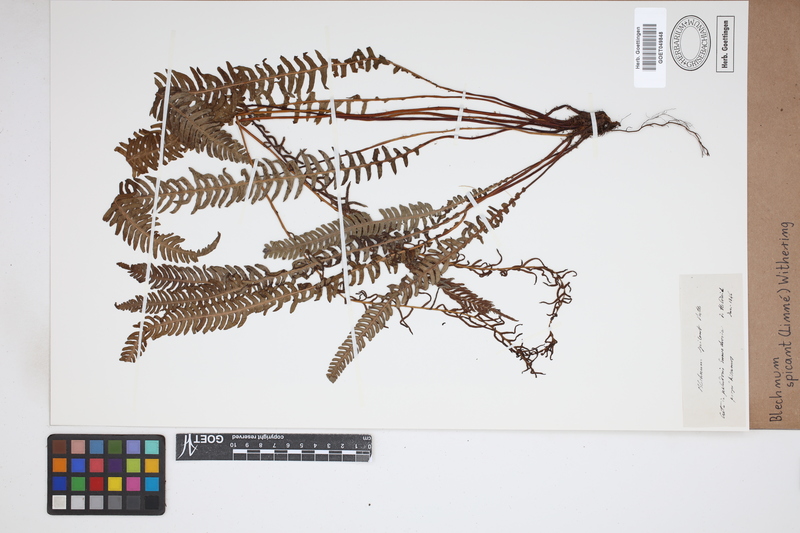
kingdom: Plantae
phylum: Tracheophyta
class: Polypodiopsida
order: Polypodiales
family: Blechnaceae
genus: Struthiopteris
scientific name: Struthiopteris spicant
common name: Deer fern
